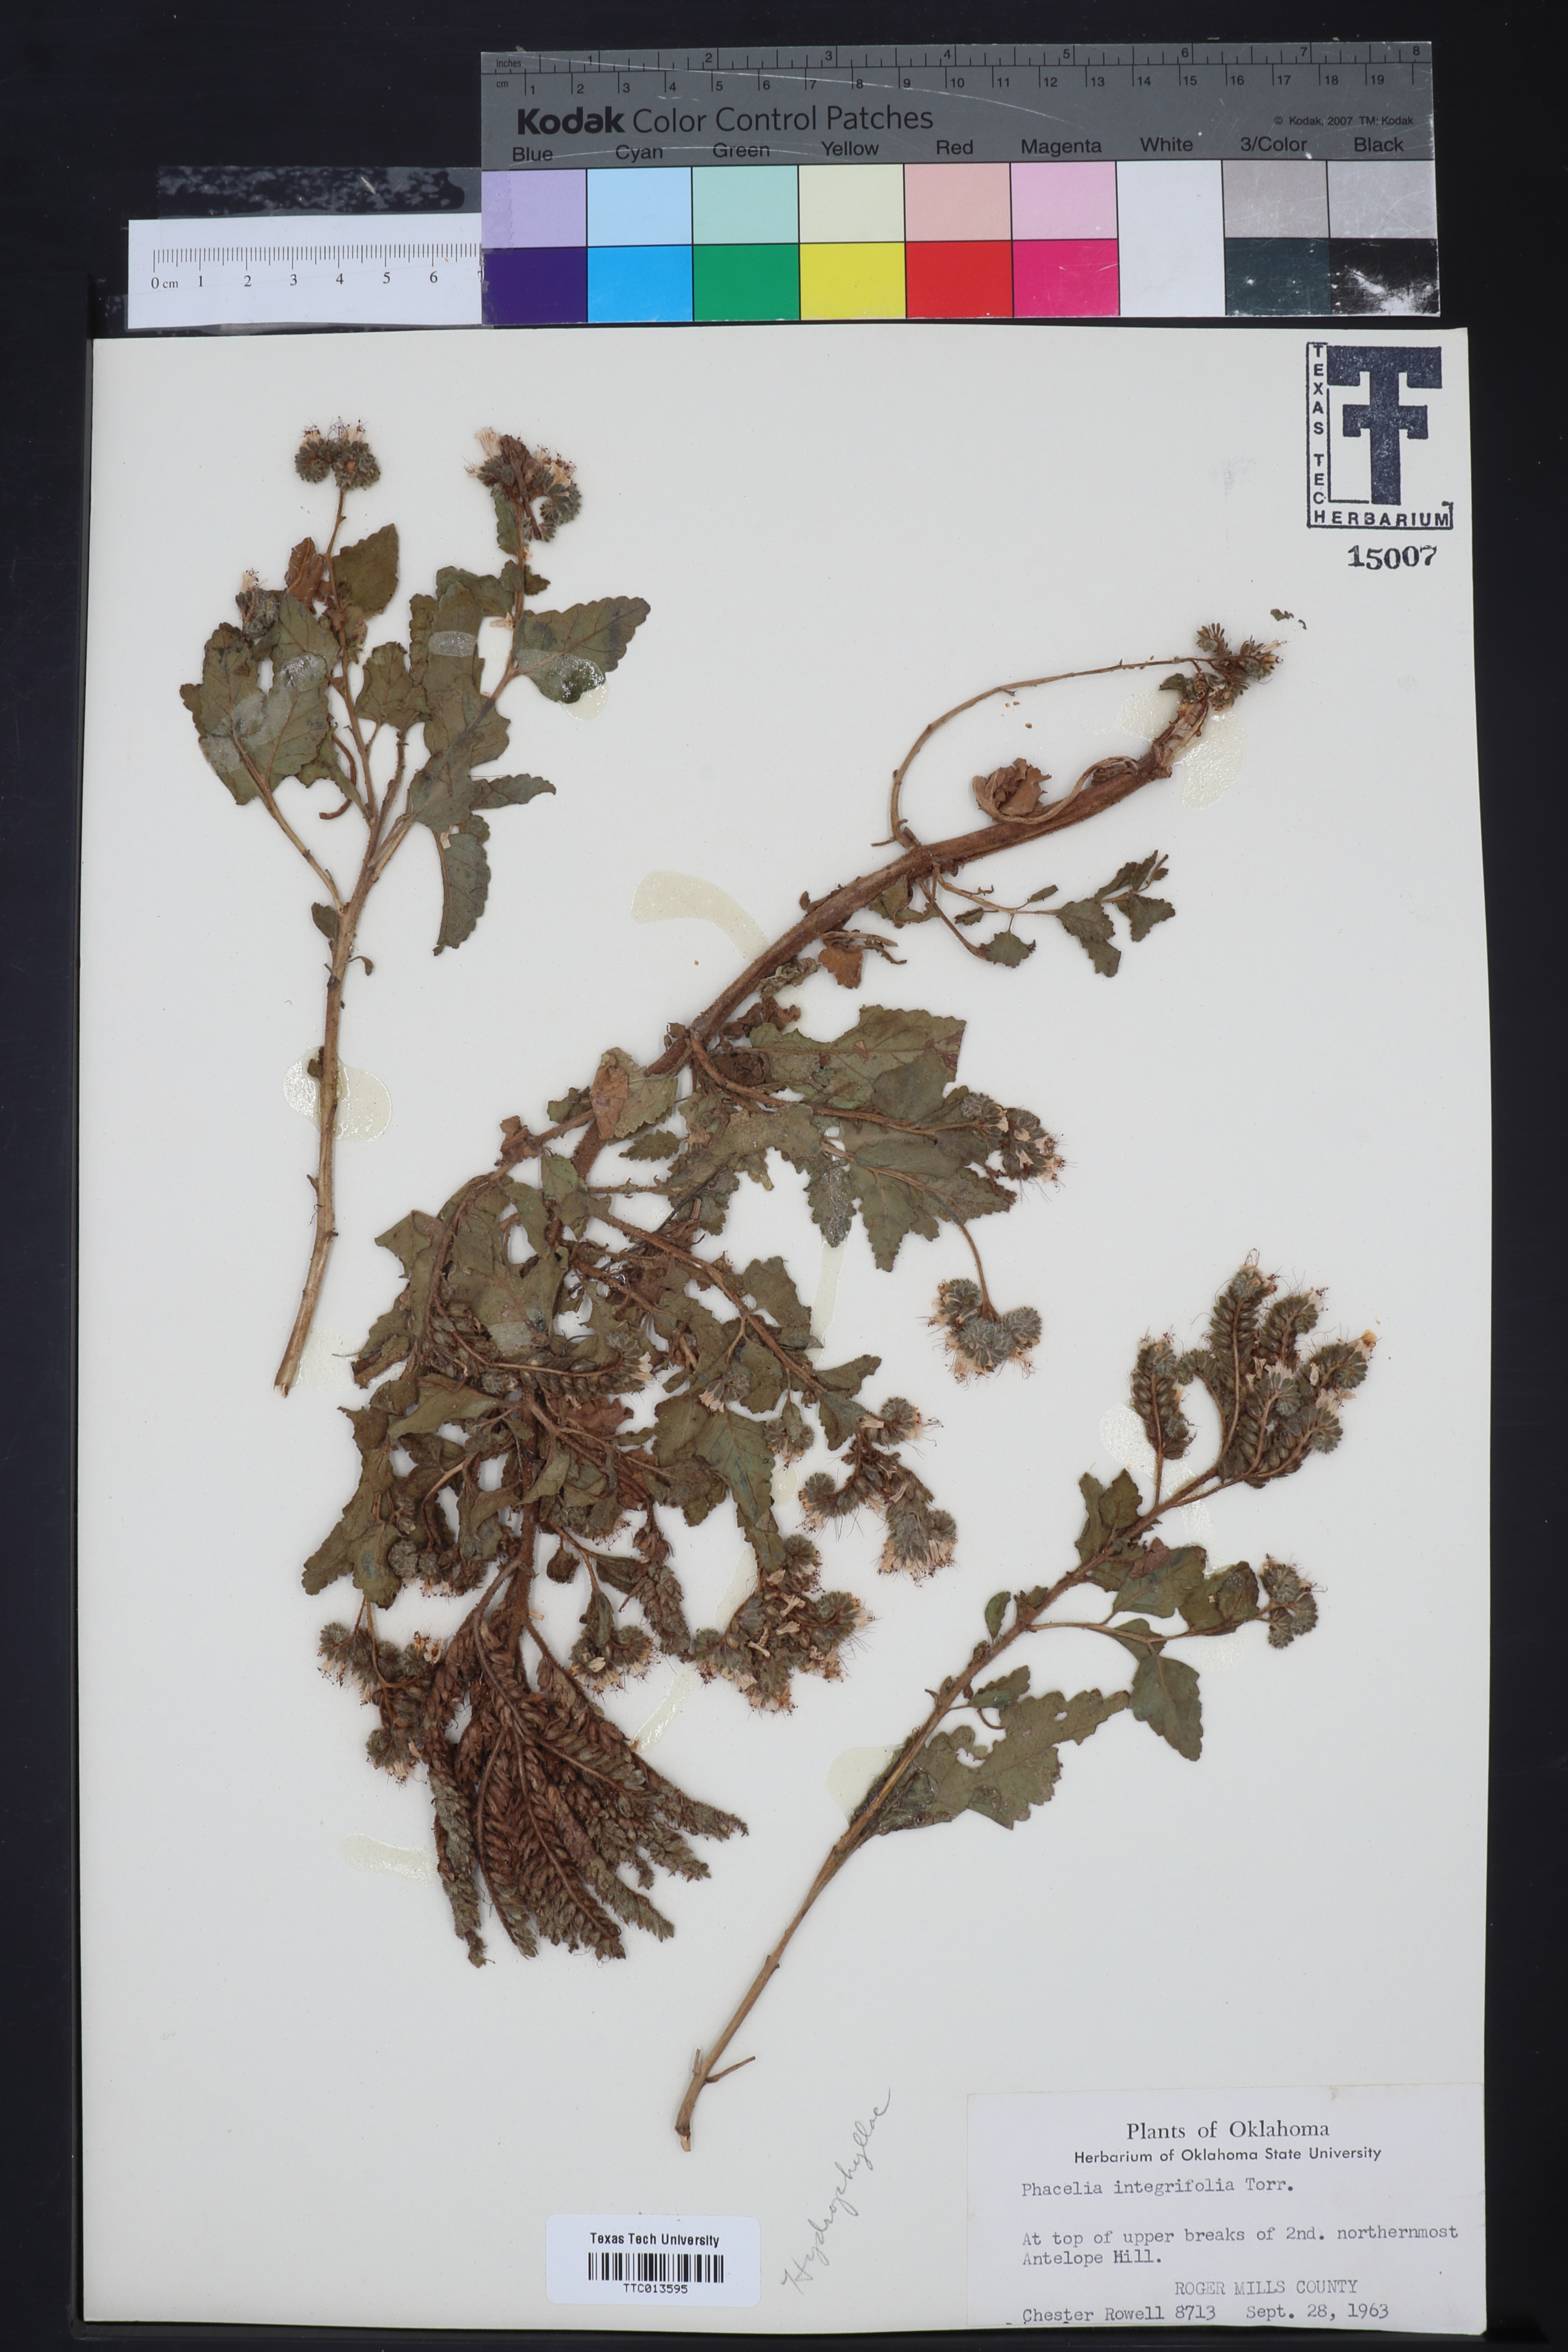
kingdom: Plantae
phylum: Tracheophyta
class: Magnoliopsida
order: Boraginales
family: Hydrophyllaceae
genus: Phacelia
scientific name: Phacelia integrifolia
